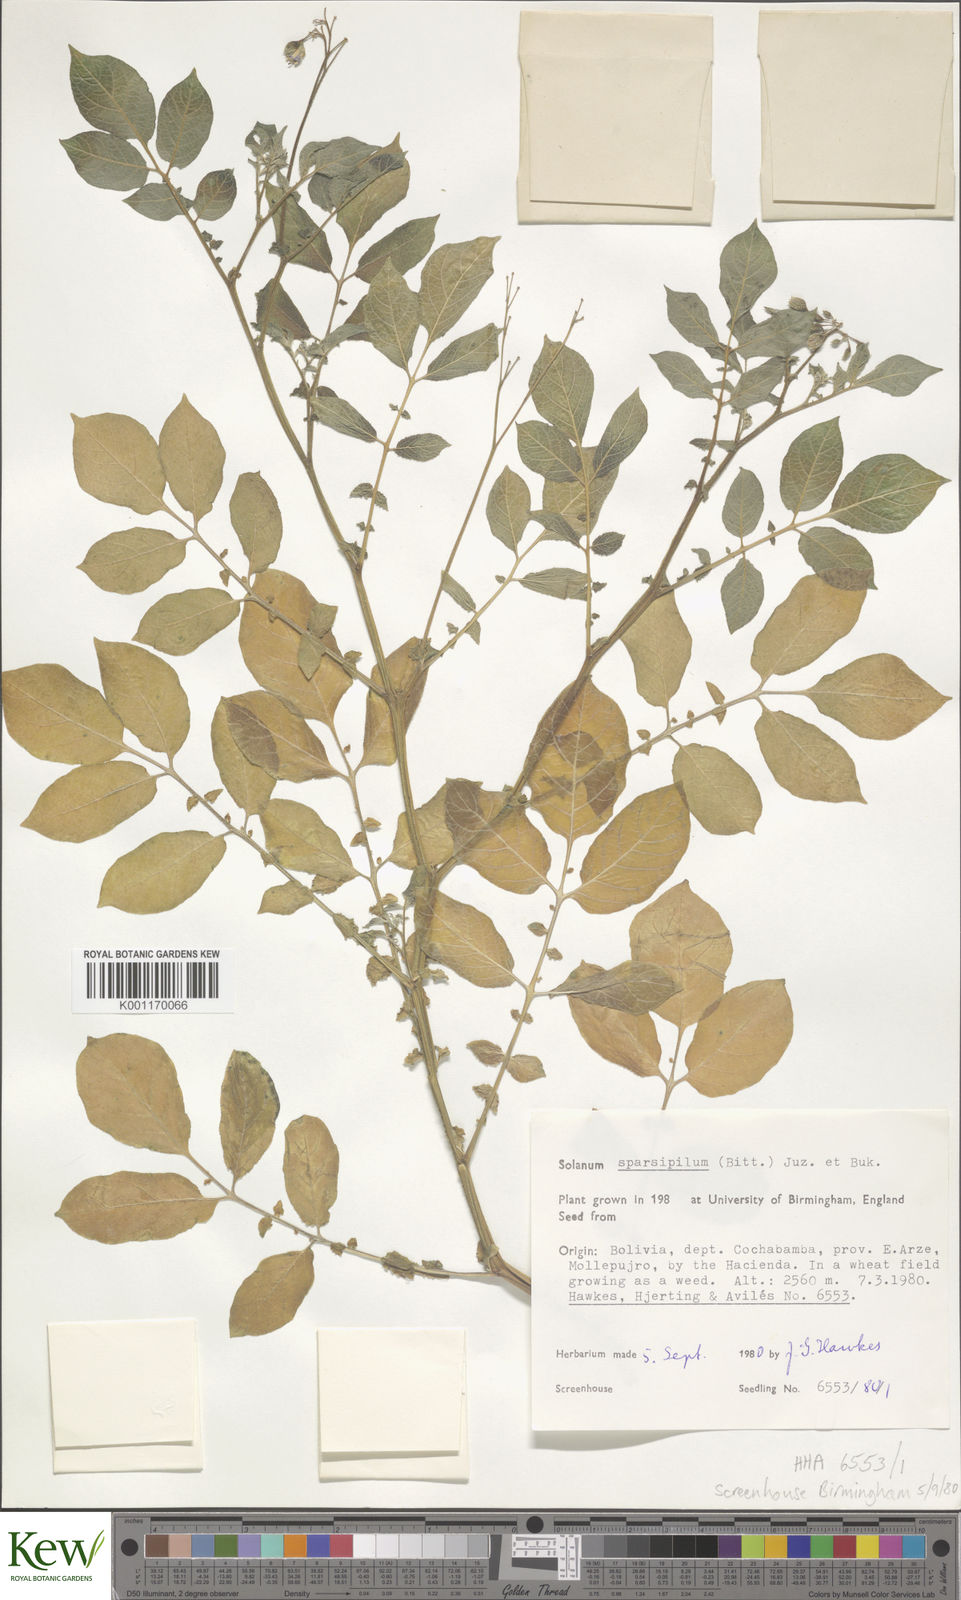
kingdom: Plantae
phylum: Tracheophyta
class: Magnoliopsida
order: Solanales
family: Solanaceae
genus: Solanum
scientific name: Solanum brevicaule
